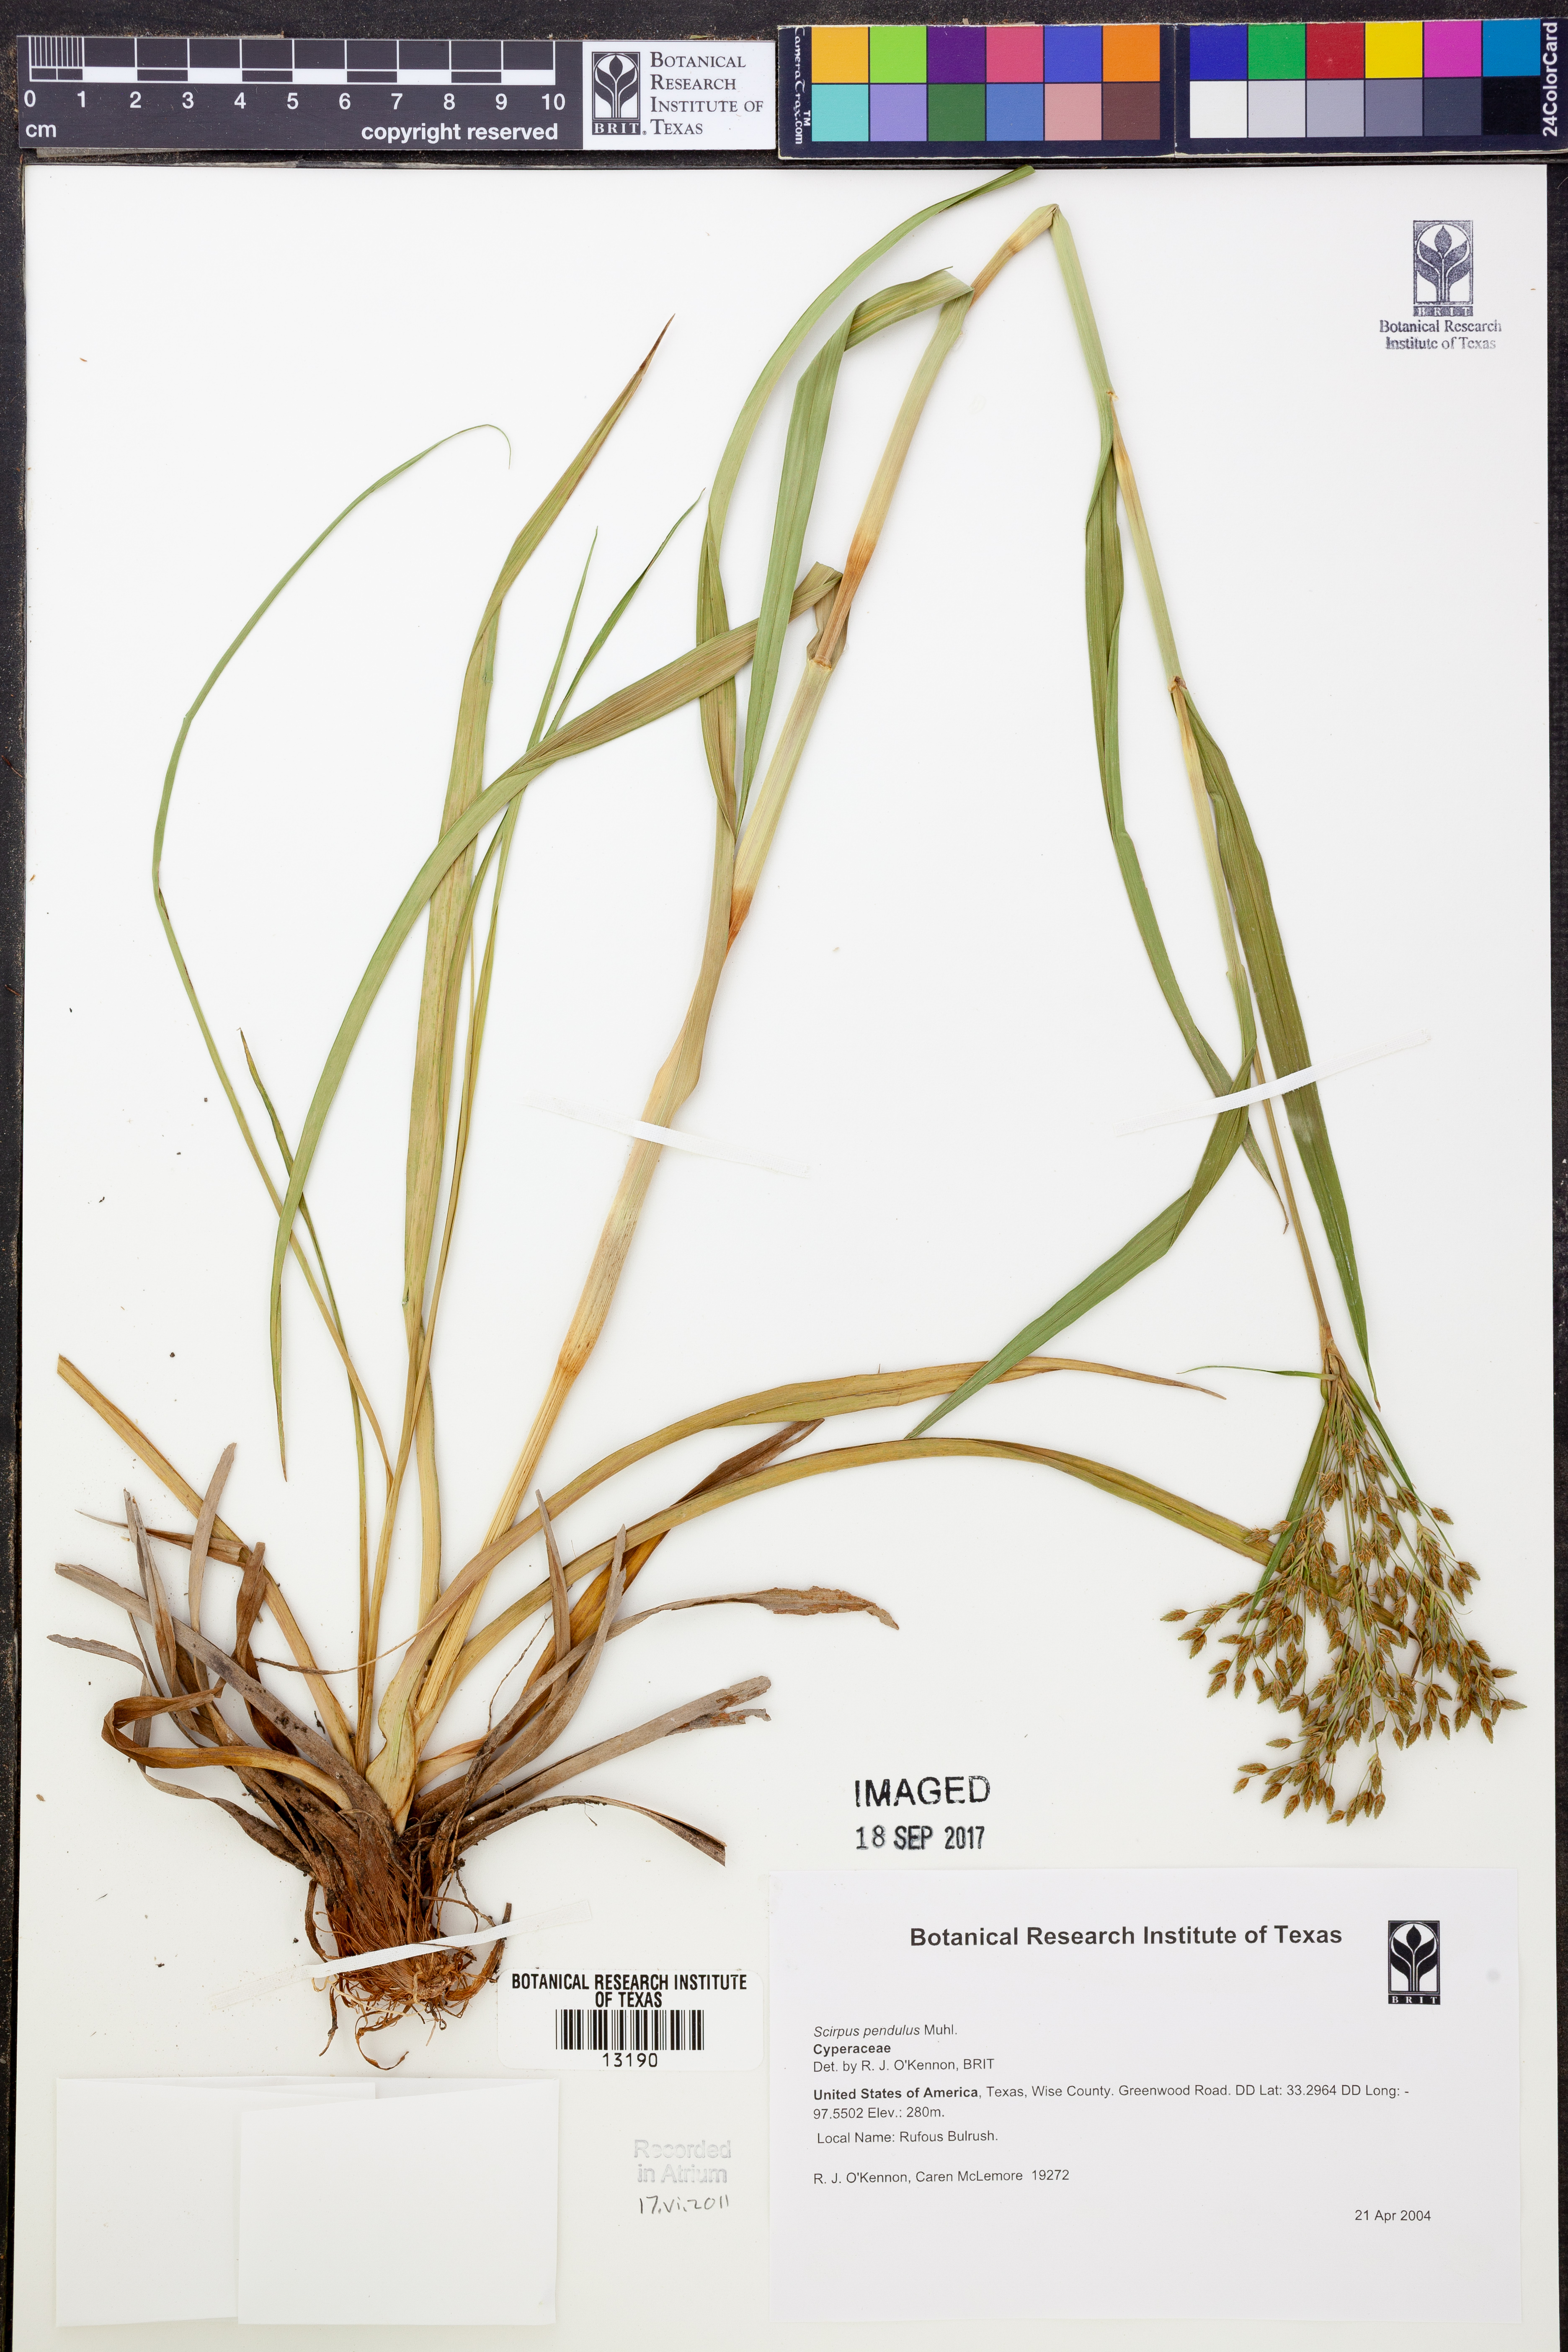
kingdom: Plantae
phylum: Tracheophyta
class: Liliopsida
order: Poales
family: Cyperaceae
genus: Scirpus
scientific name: Scirpus pendulus
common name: Nodding bulrush
